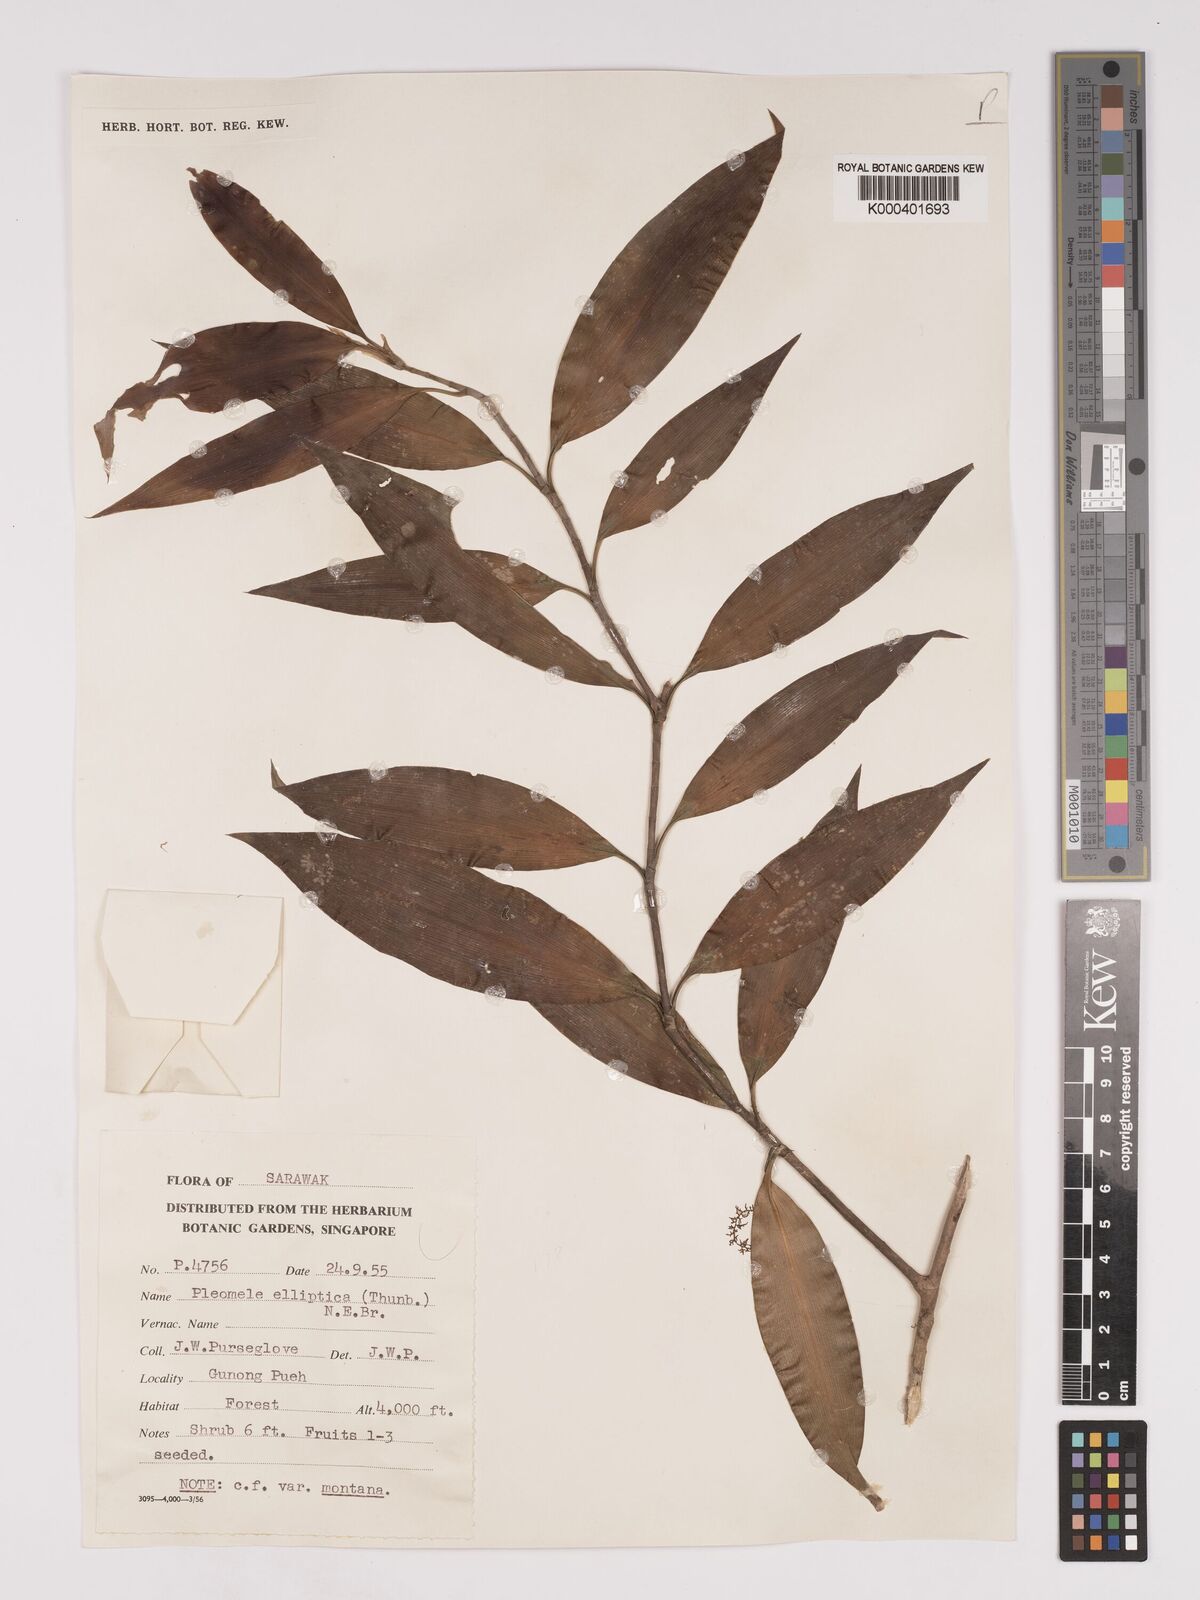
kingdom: Plantae
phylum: Tracheophyta
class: Liliopsida
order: Asparagales
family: Asparagaceae
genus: Dracaena
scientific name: Dracaena elliptica
